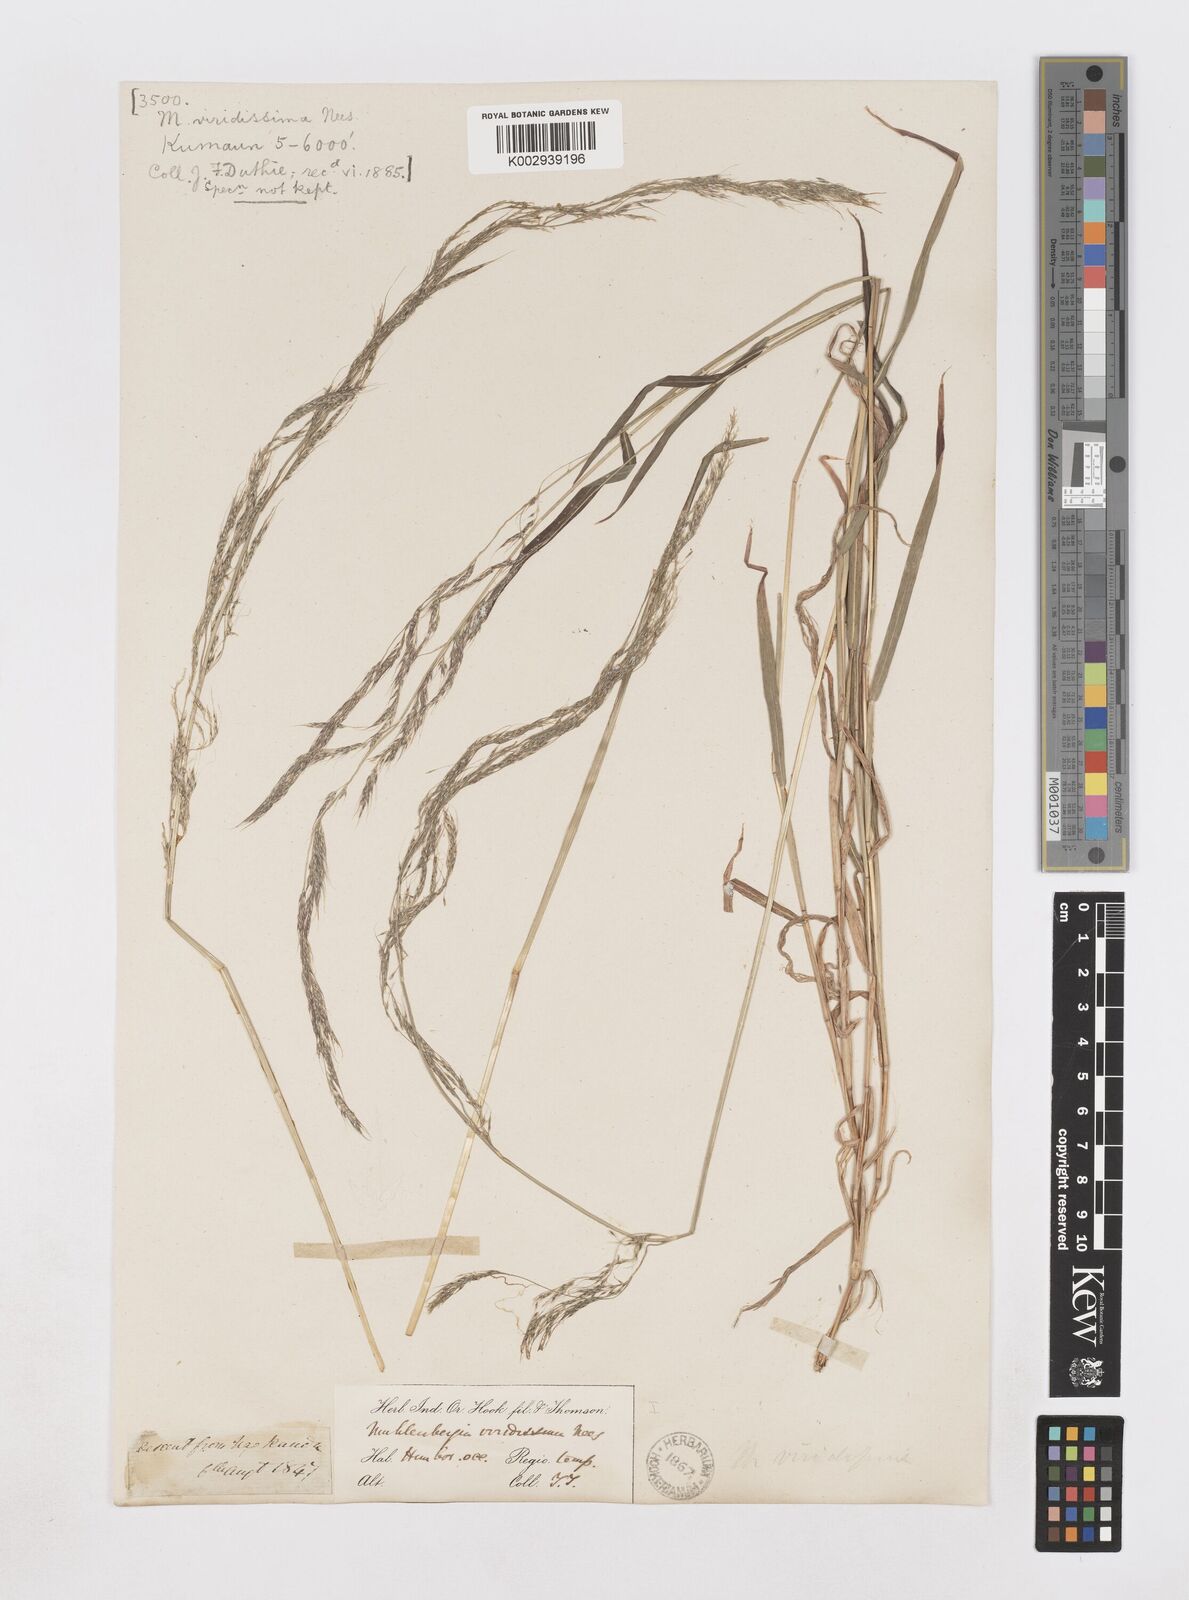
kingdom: Plantae
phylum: Tracheophyta
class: Liliopsida
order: Poales
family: Poaceae
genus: Muhlenbergia
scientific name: Muhlenbergia huegelii
